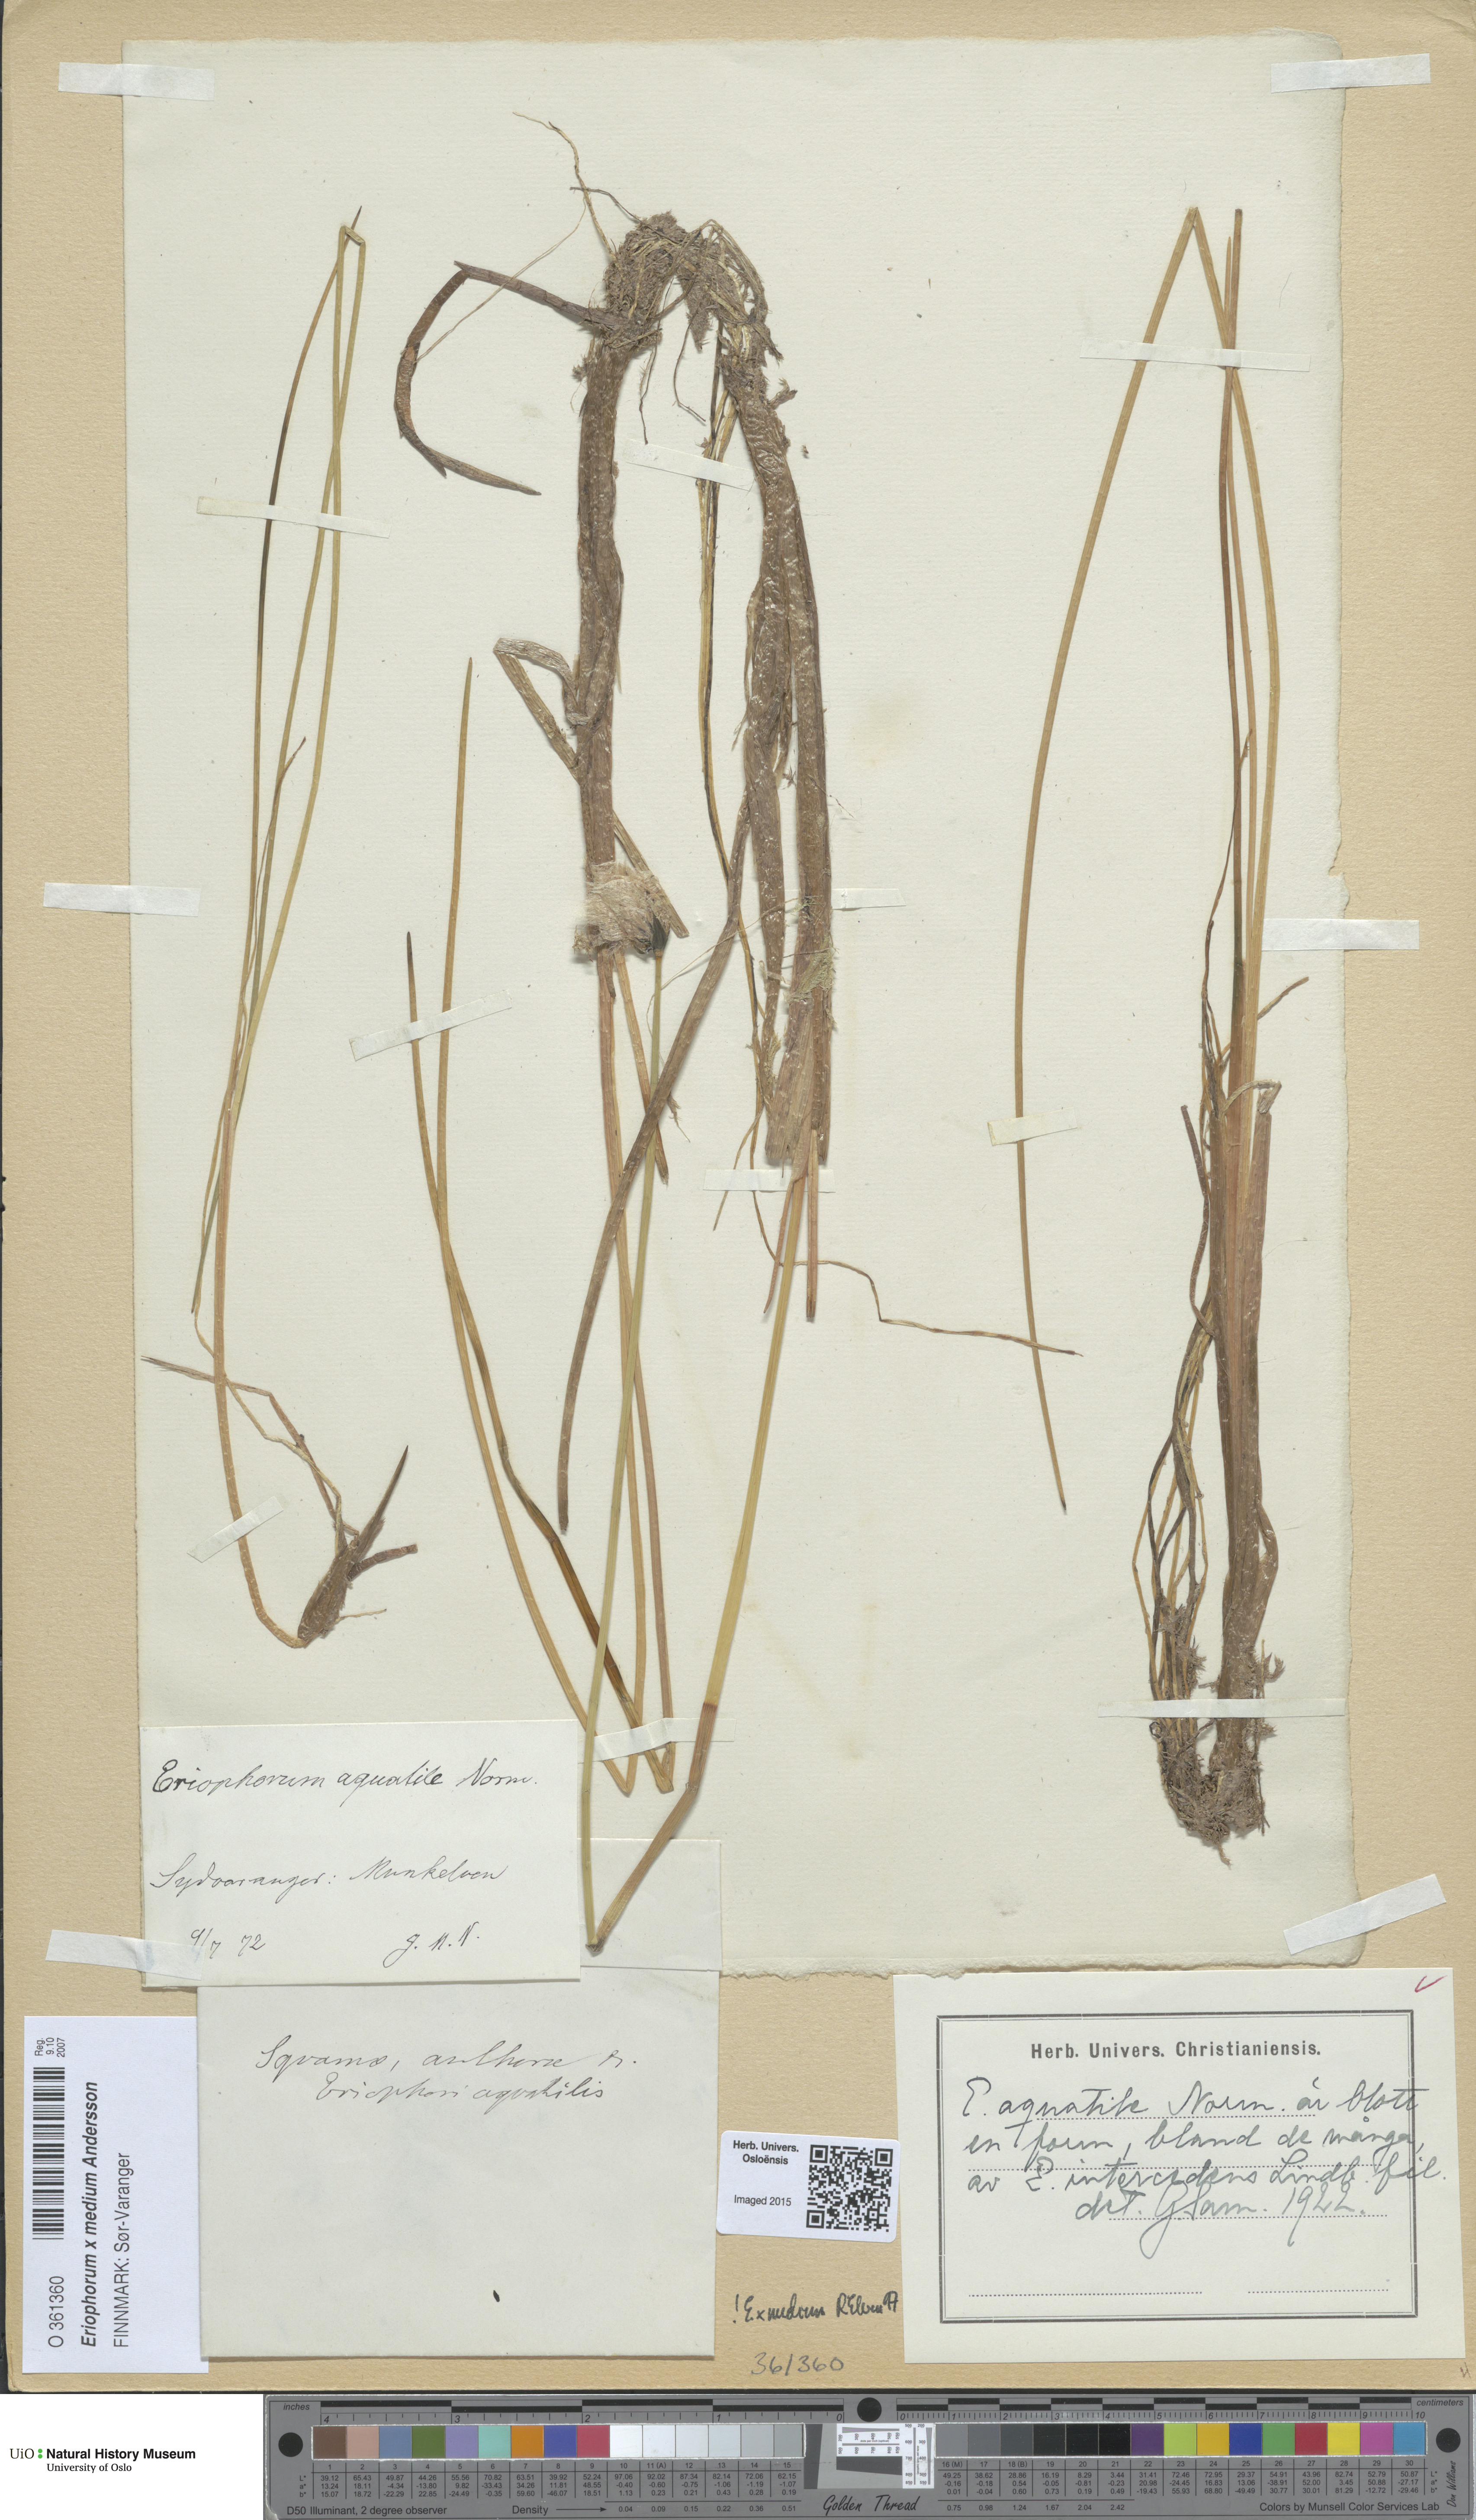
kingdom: Plantae
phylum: Tracheophyta
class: Liliopsida
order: Poales
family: Cyperaceae
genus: Eriophorum
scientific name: Eriophorum medium
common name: Intermediate cottongrass
